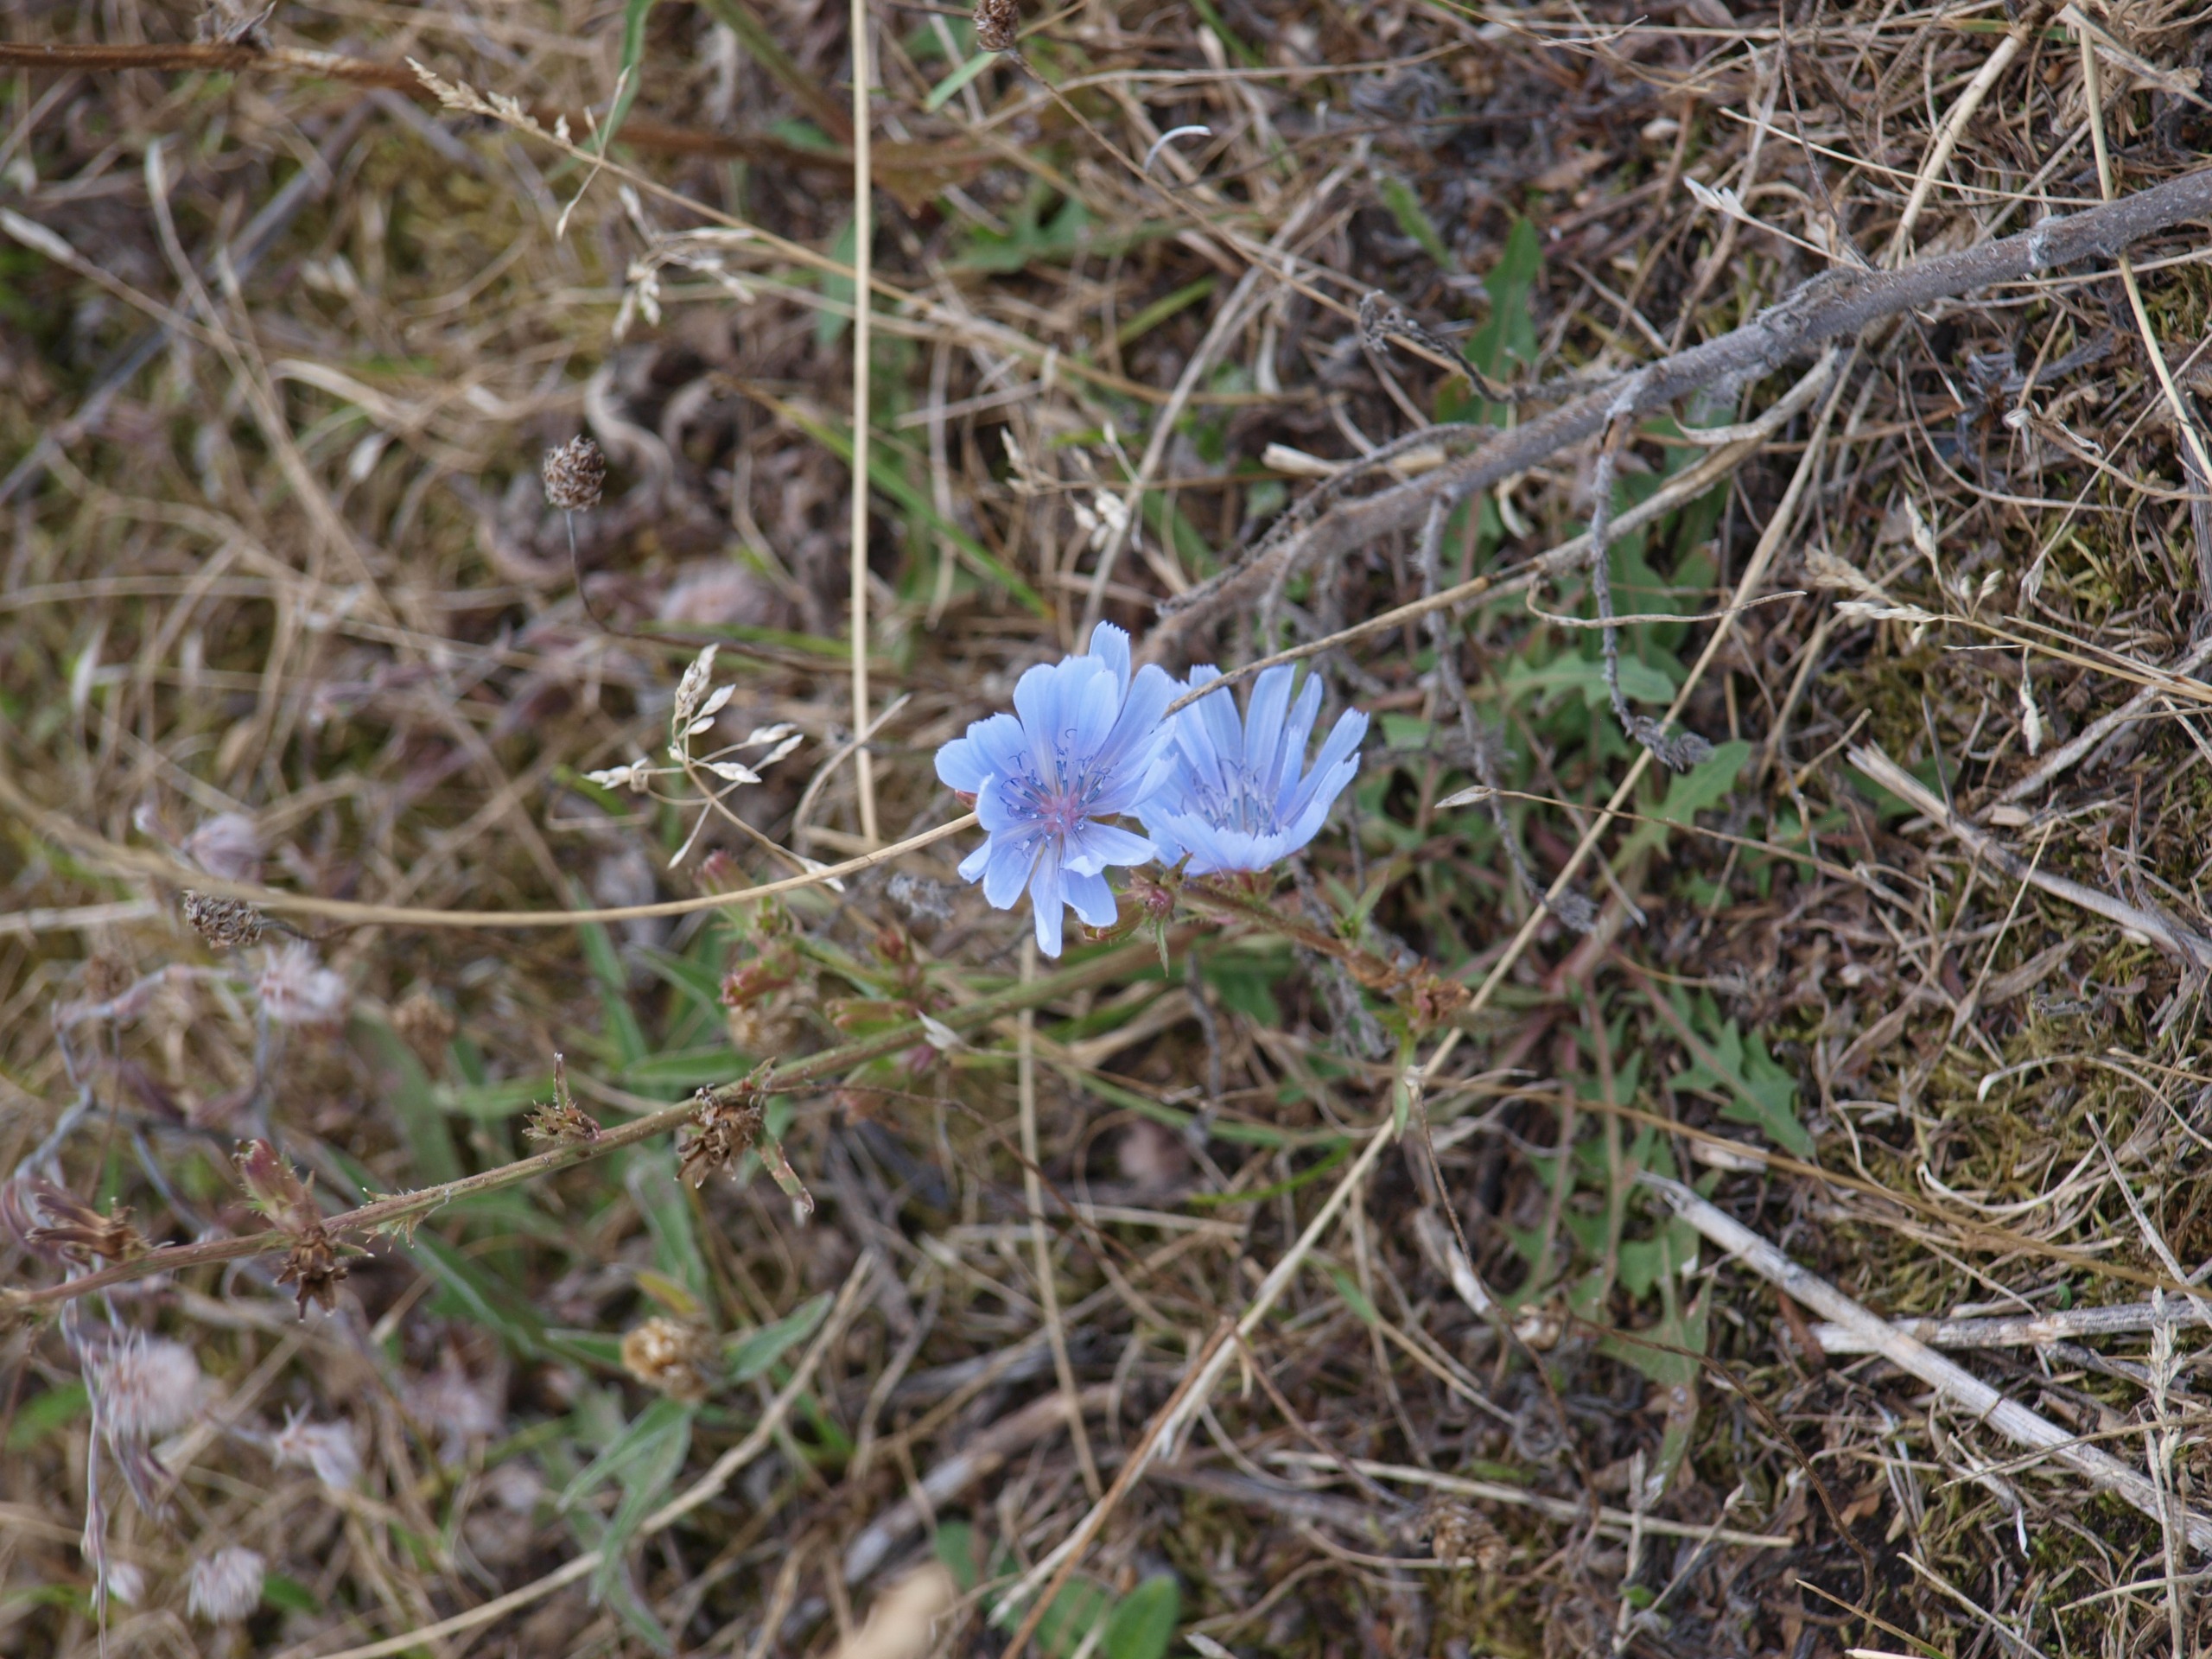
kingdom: Plantae
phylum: Tracheophyta
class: Magnoliopsida
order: Asterales
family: Asteraceae
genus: Cichorium
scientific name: Cichorium intybus
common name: Cikorie
